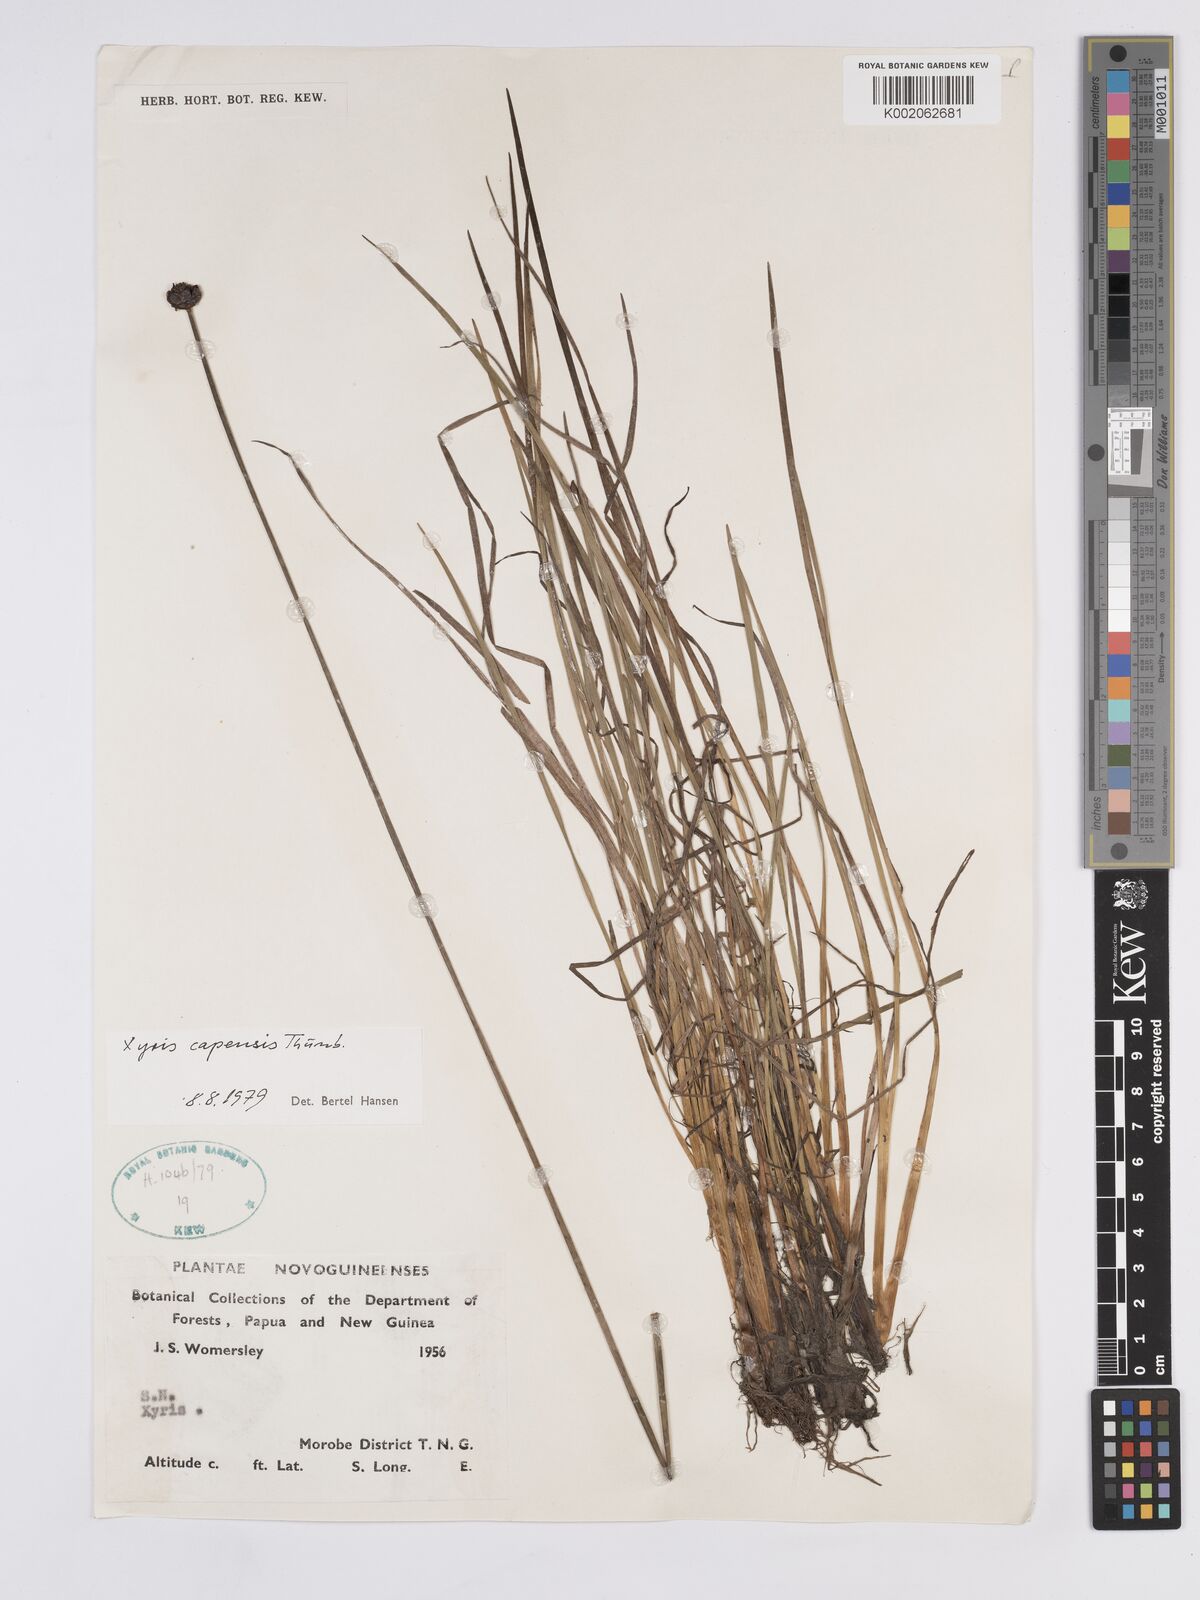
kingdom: Plantae
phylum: Tracheophyta
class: Liliopsida
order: Poales
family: Xyridaceae
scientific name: Xyridaceae
